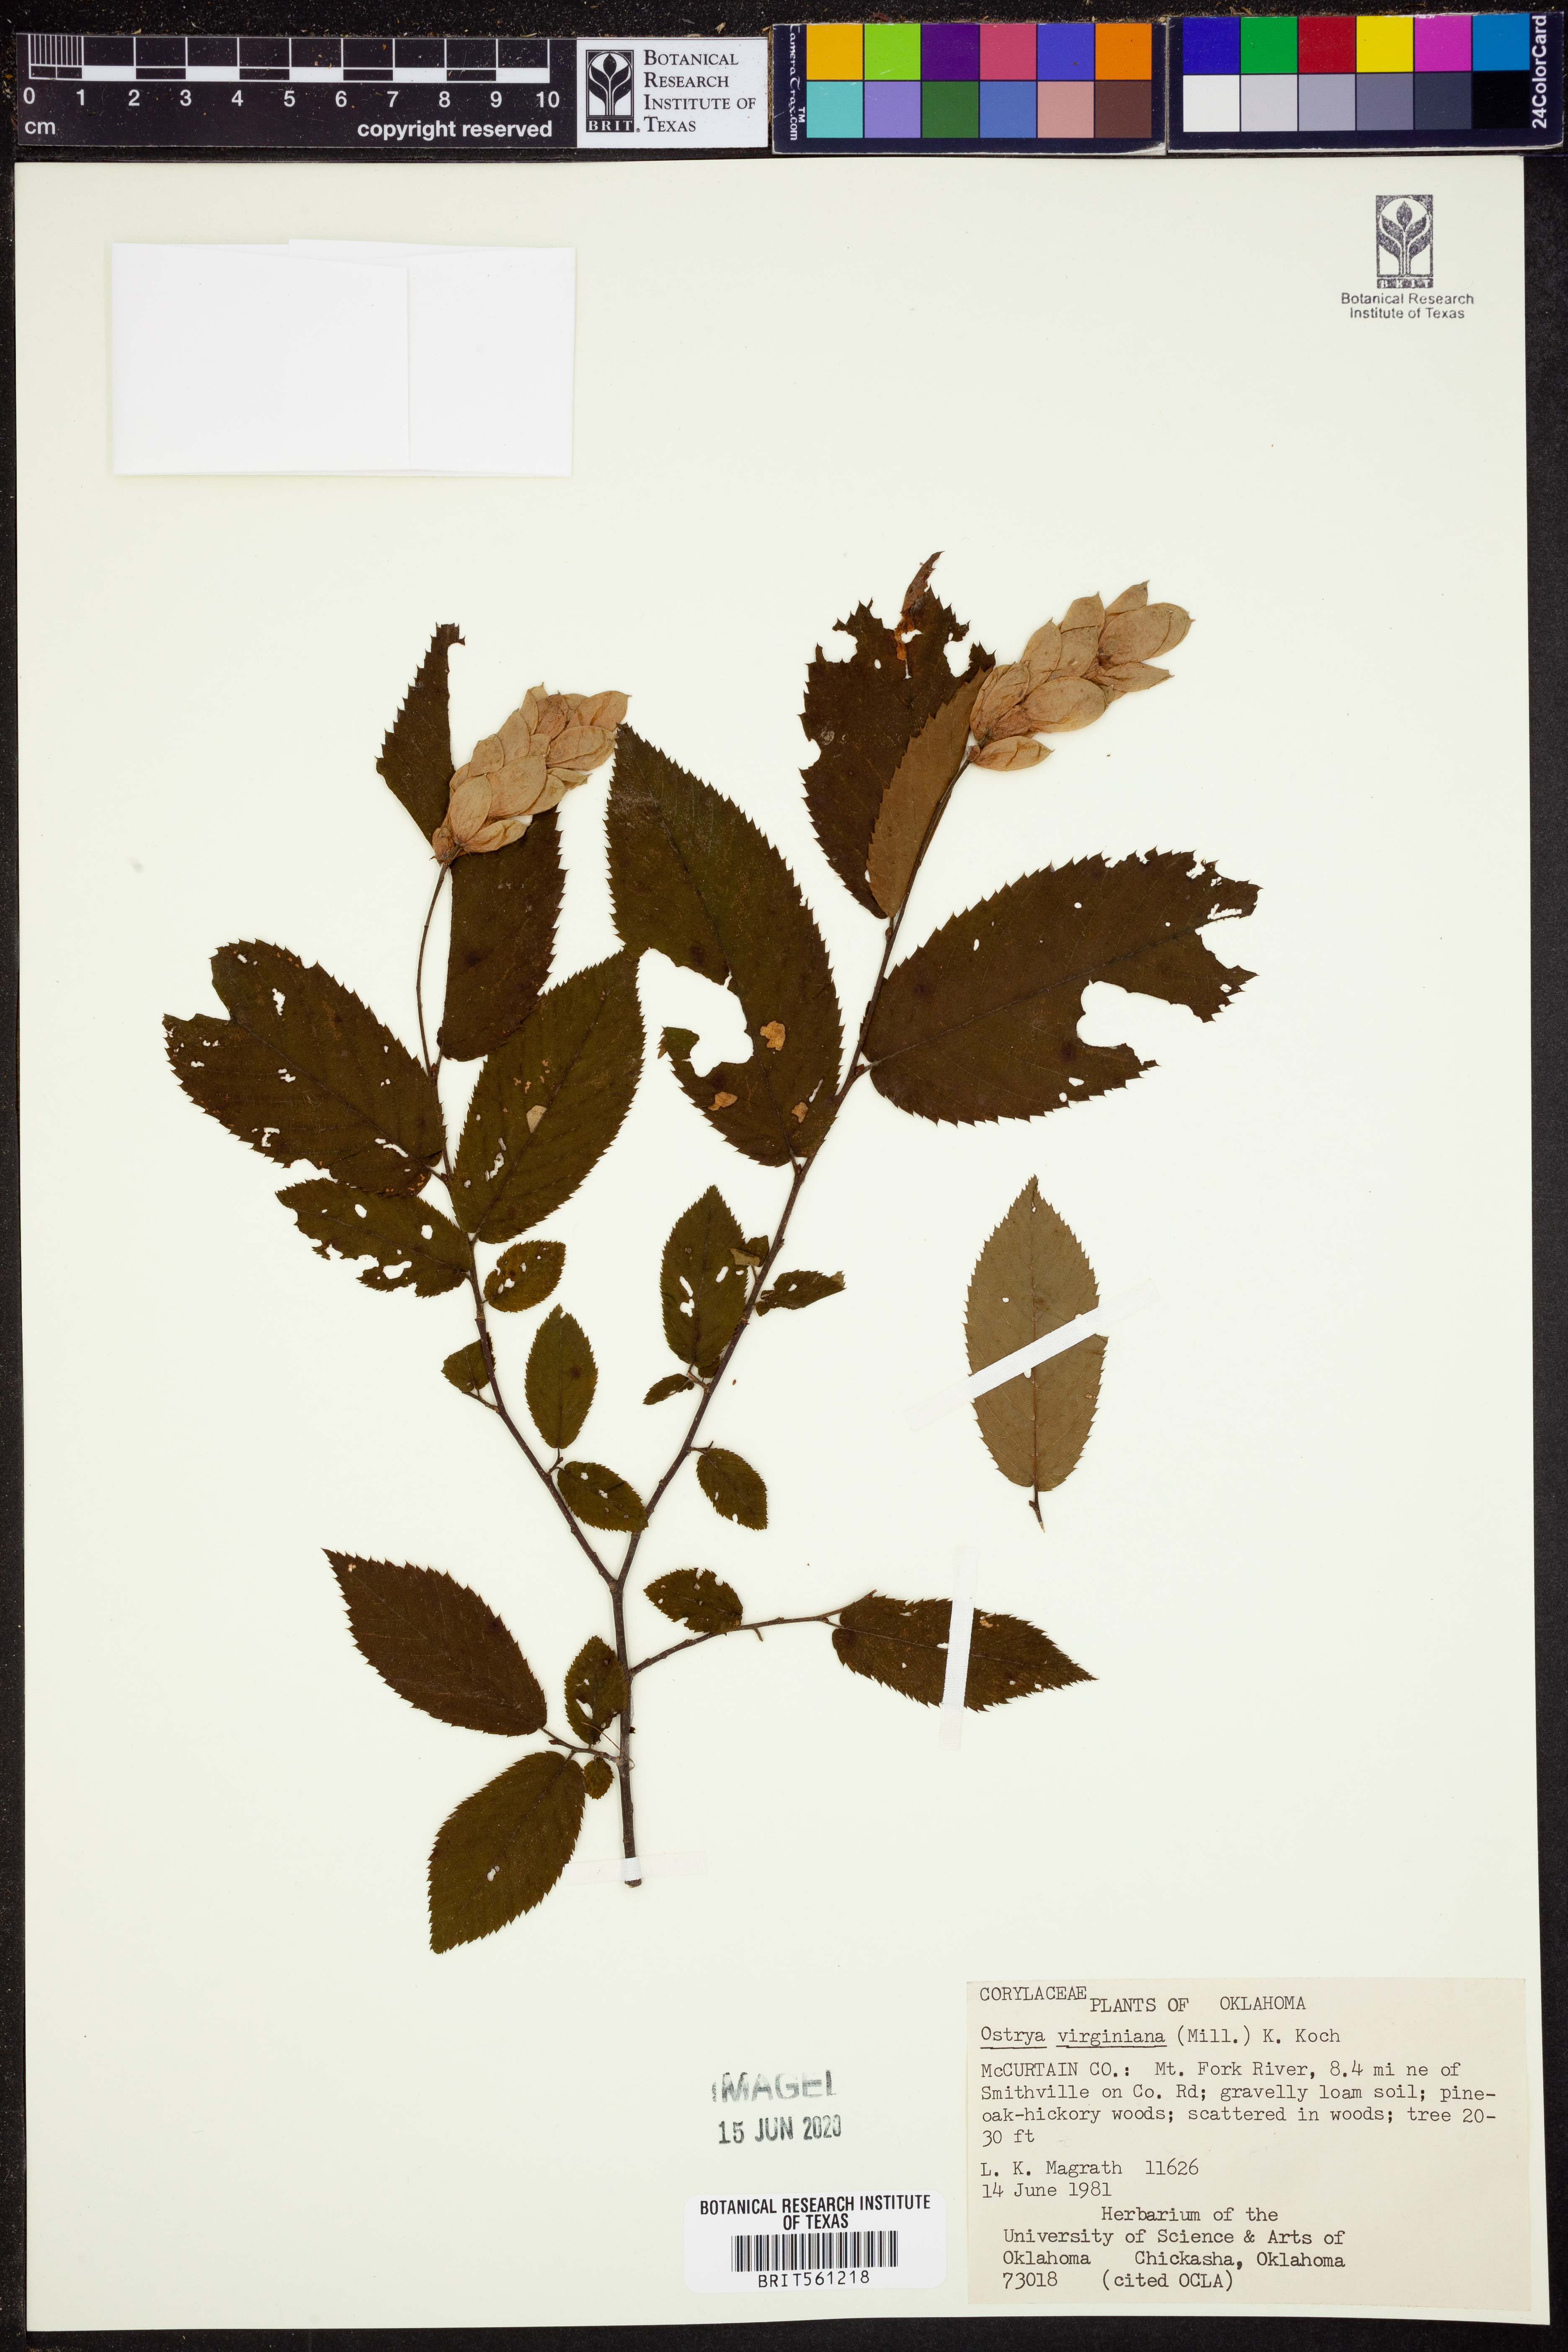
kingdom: Plantae
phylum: Tracheophyta
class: Magnoliopsida
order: Fagales
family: Betulaceae
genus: Ostrya
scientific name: Ostrya virginiana
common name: Ironwood
